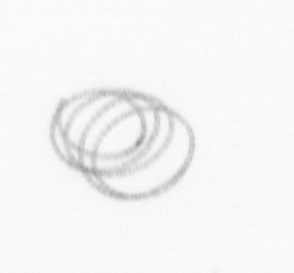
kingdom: Chromista
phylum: Ochrophyta
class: Bacillariophyceae
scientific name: Bacillariophyceae
